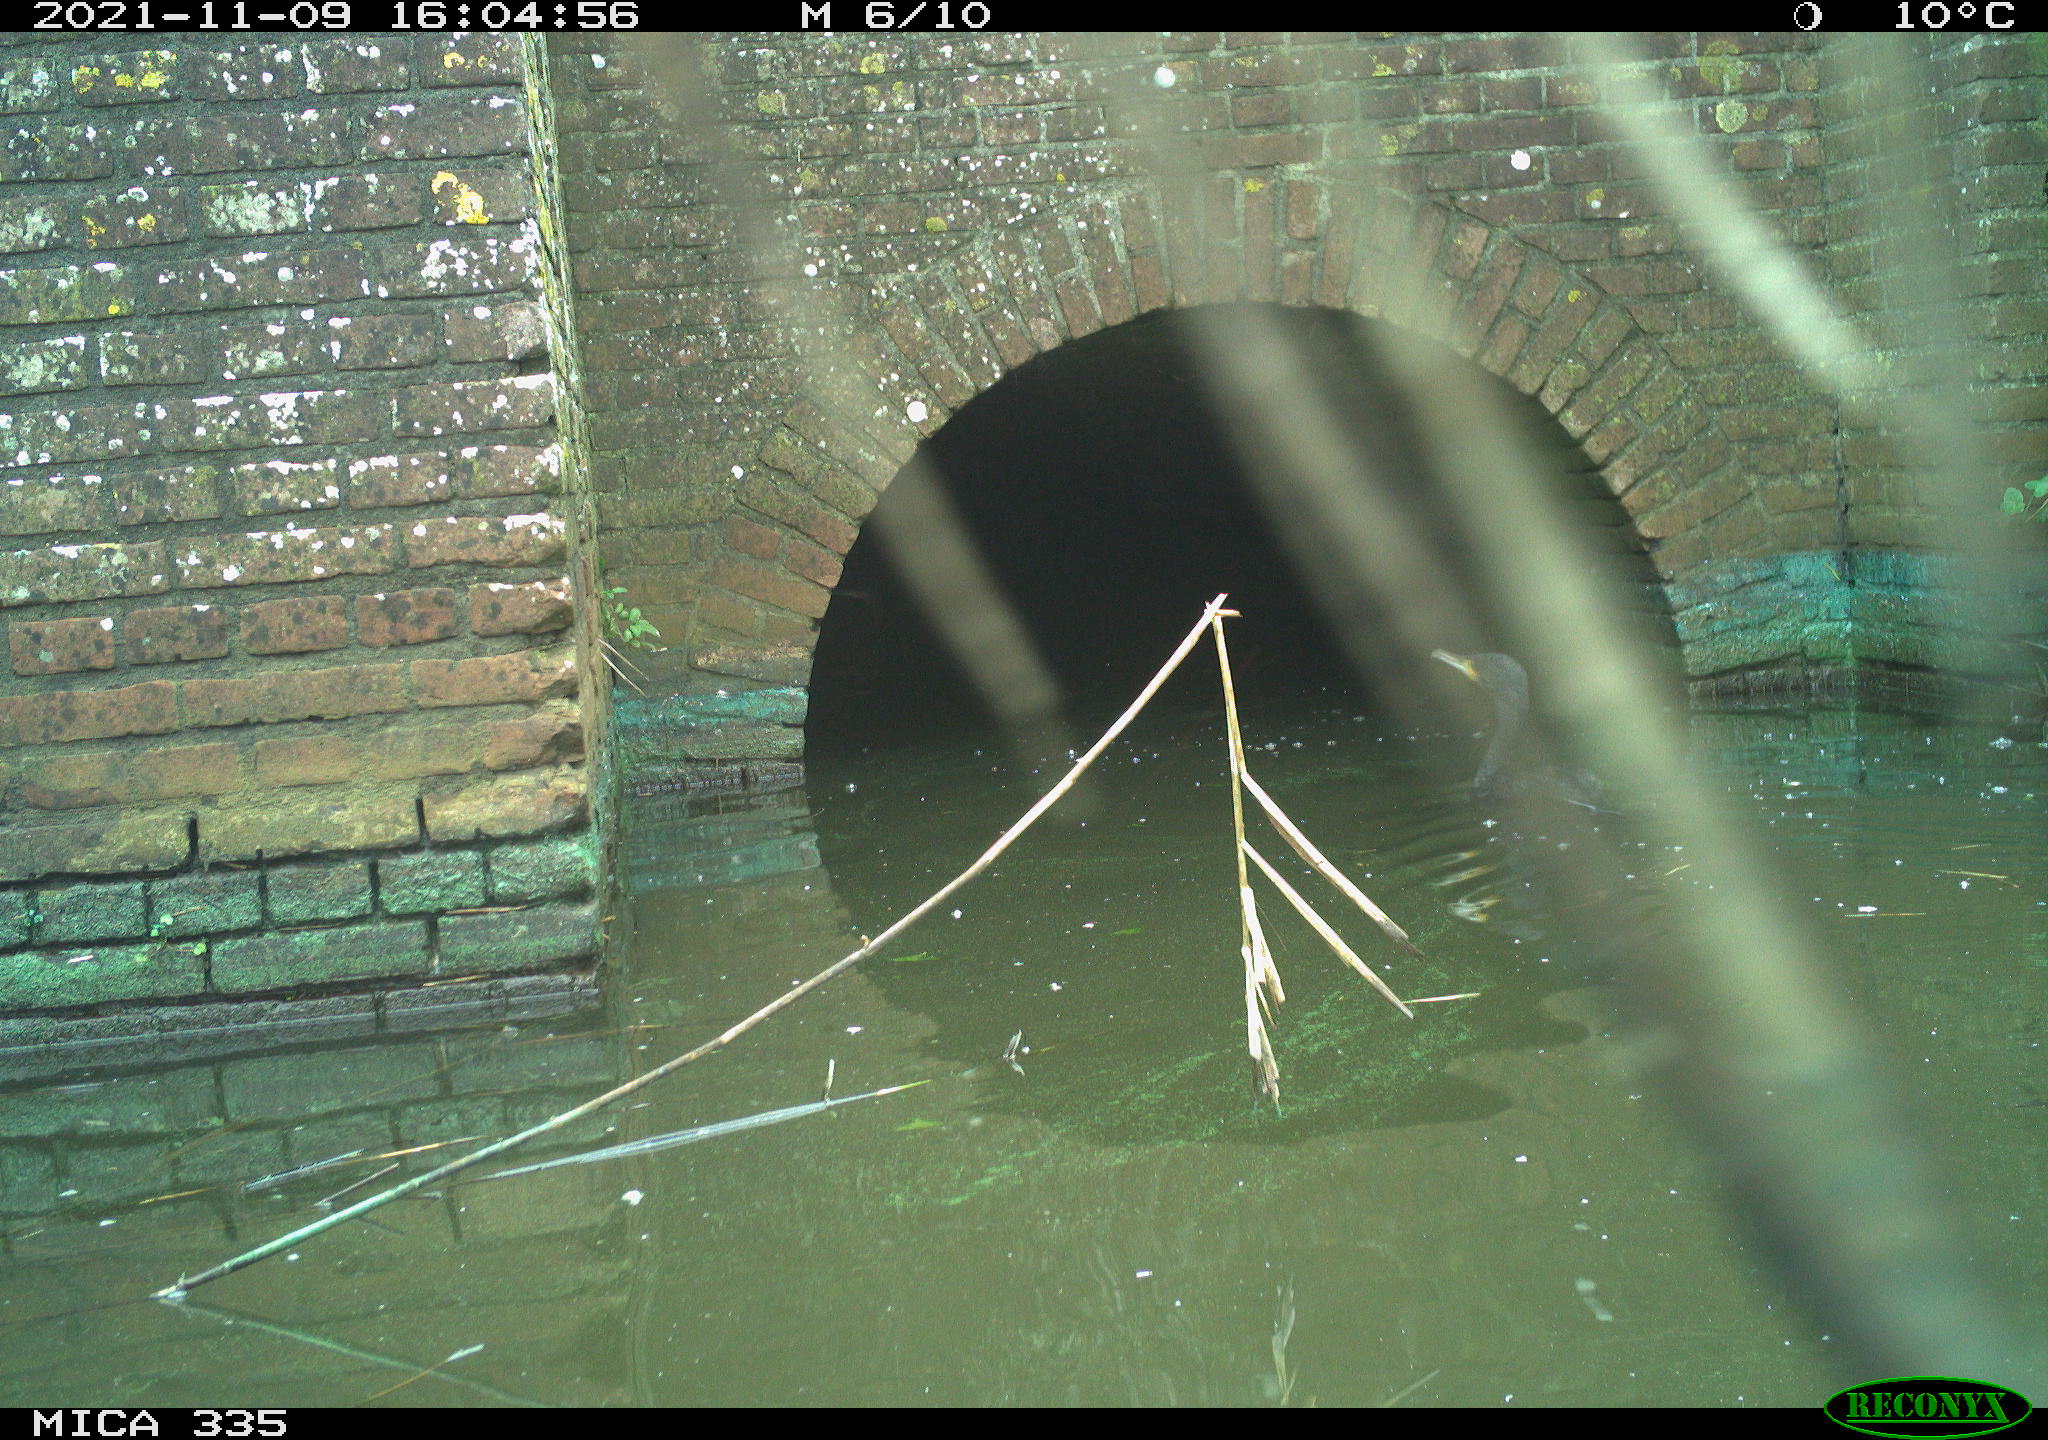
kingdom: Animalia
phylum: Chordata
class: Aves
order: Suliformes
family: Phalacrocoracidae
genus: Phalacrocorax
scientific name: Phalacrocorax carbo
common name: Great cormorant
